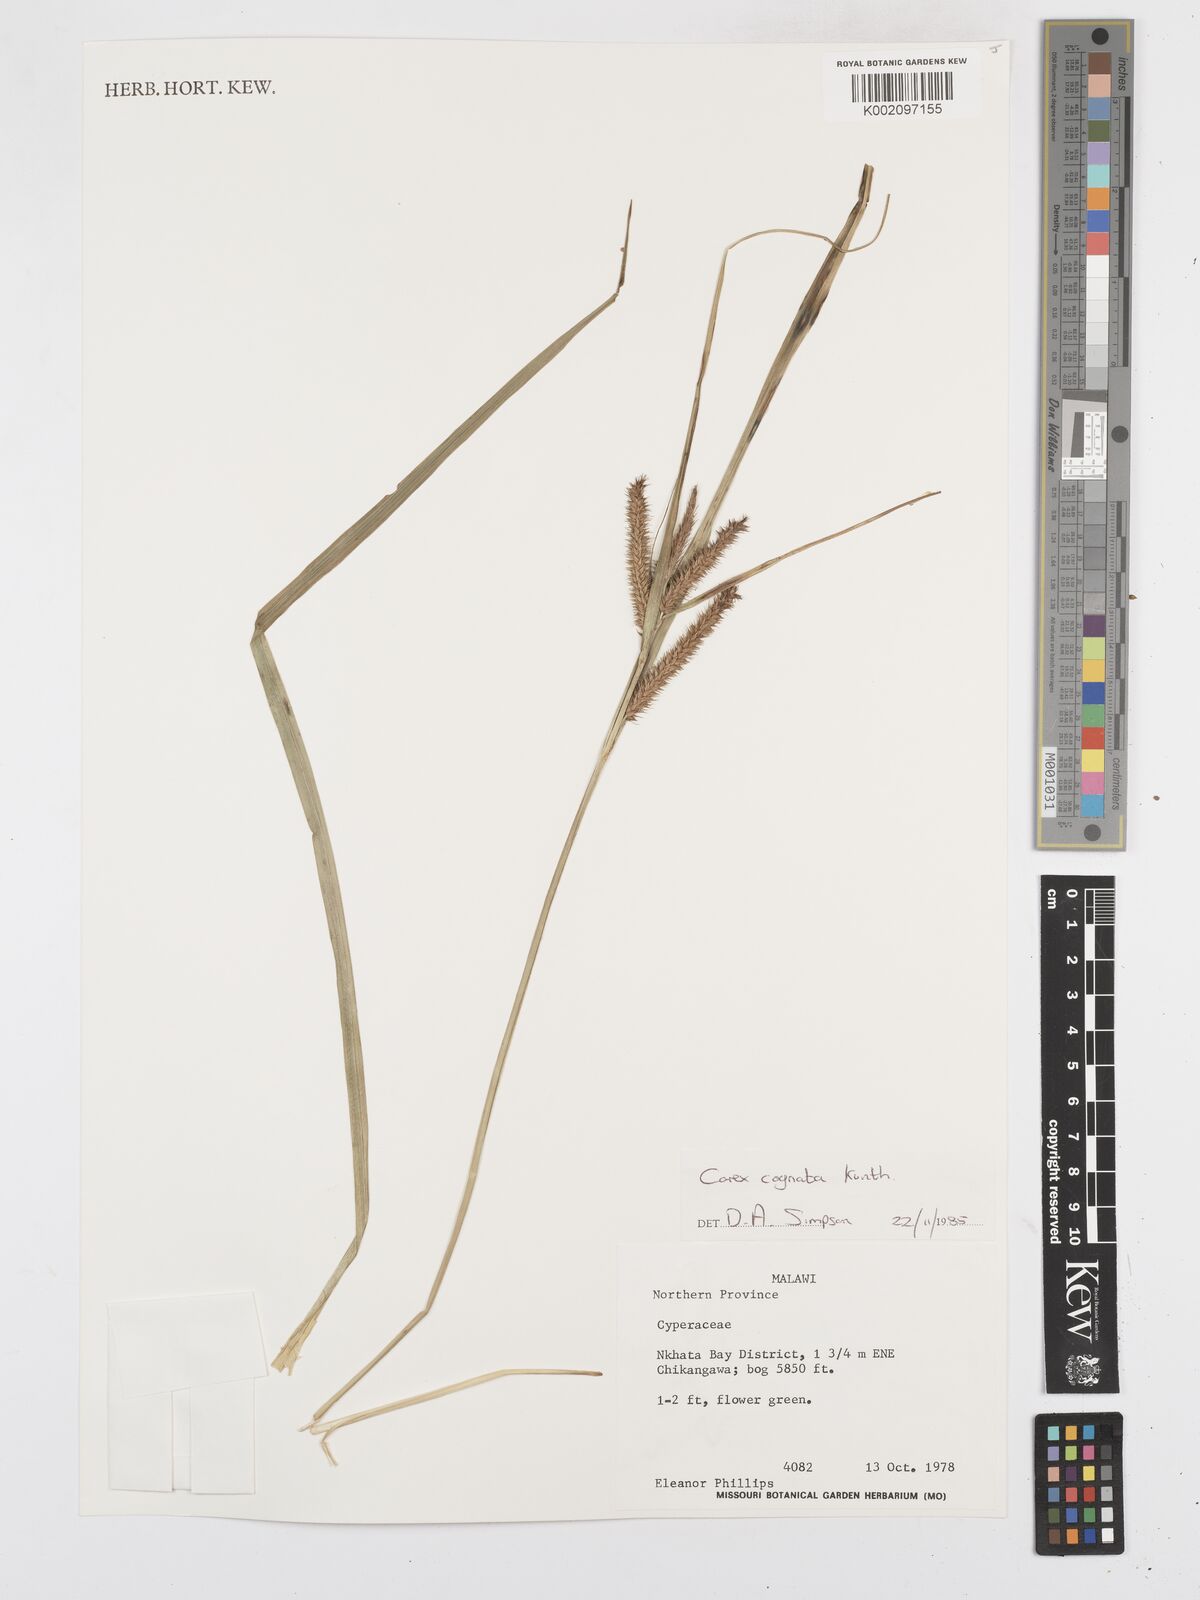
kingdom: Plantae
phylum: Tracheophyta
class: Liliopsida
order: Poales
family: Cyperaceae
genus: Carex
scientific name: Carex cognata
